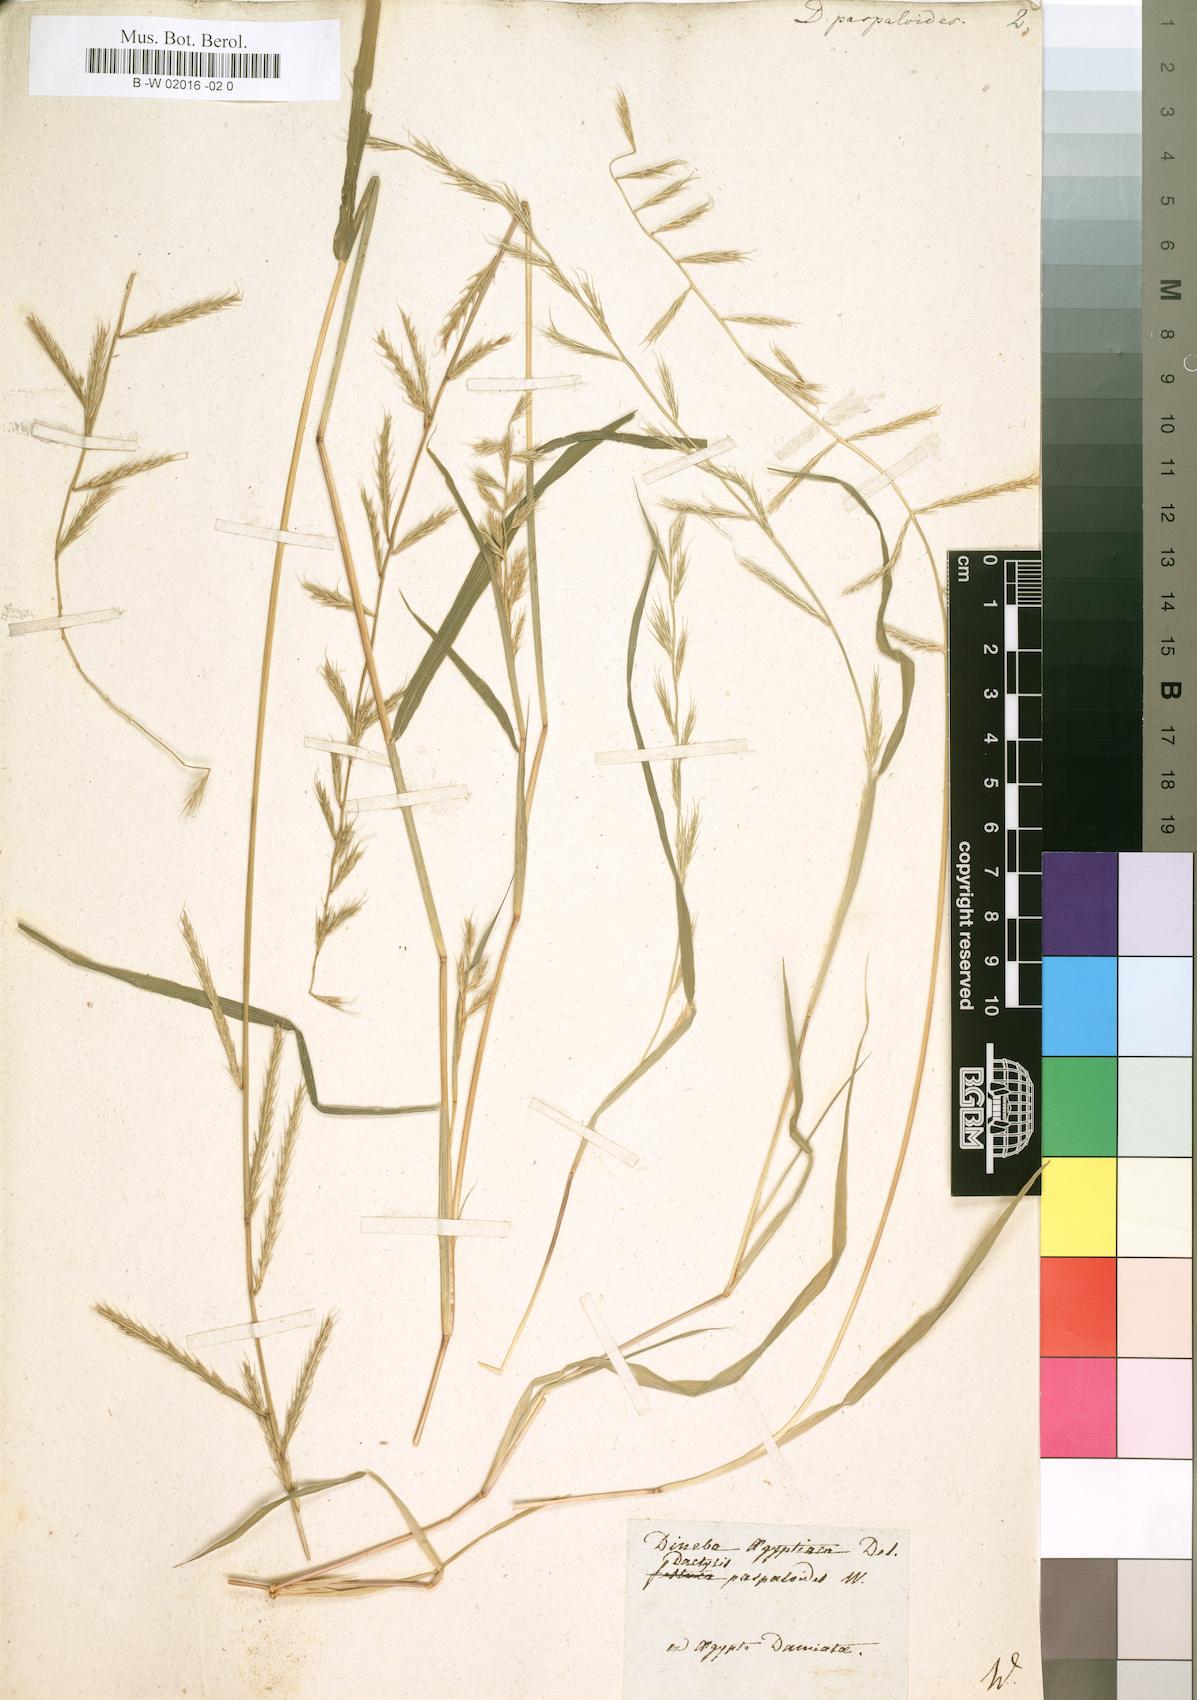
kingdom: Plantae
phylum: Tracheophyta
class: Liliopsida
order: Poales
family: Poaceae
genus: Dinebra
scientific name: Dinebra retroflexa
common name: Viper grass
